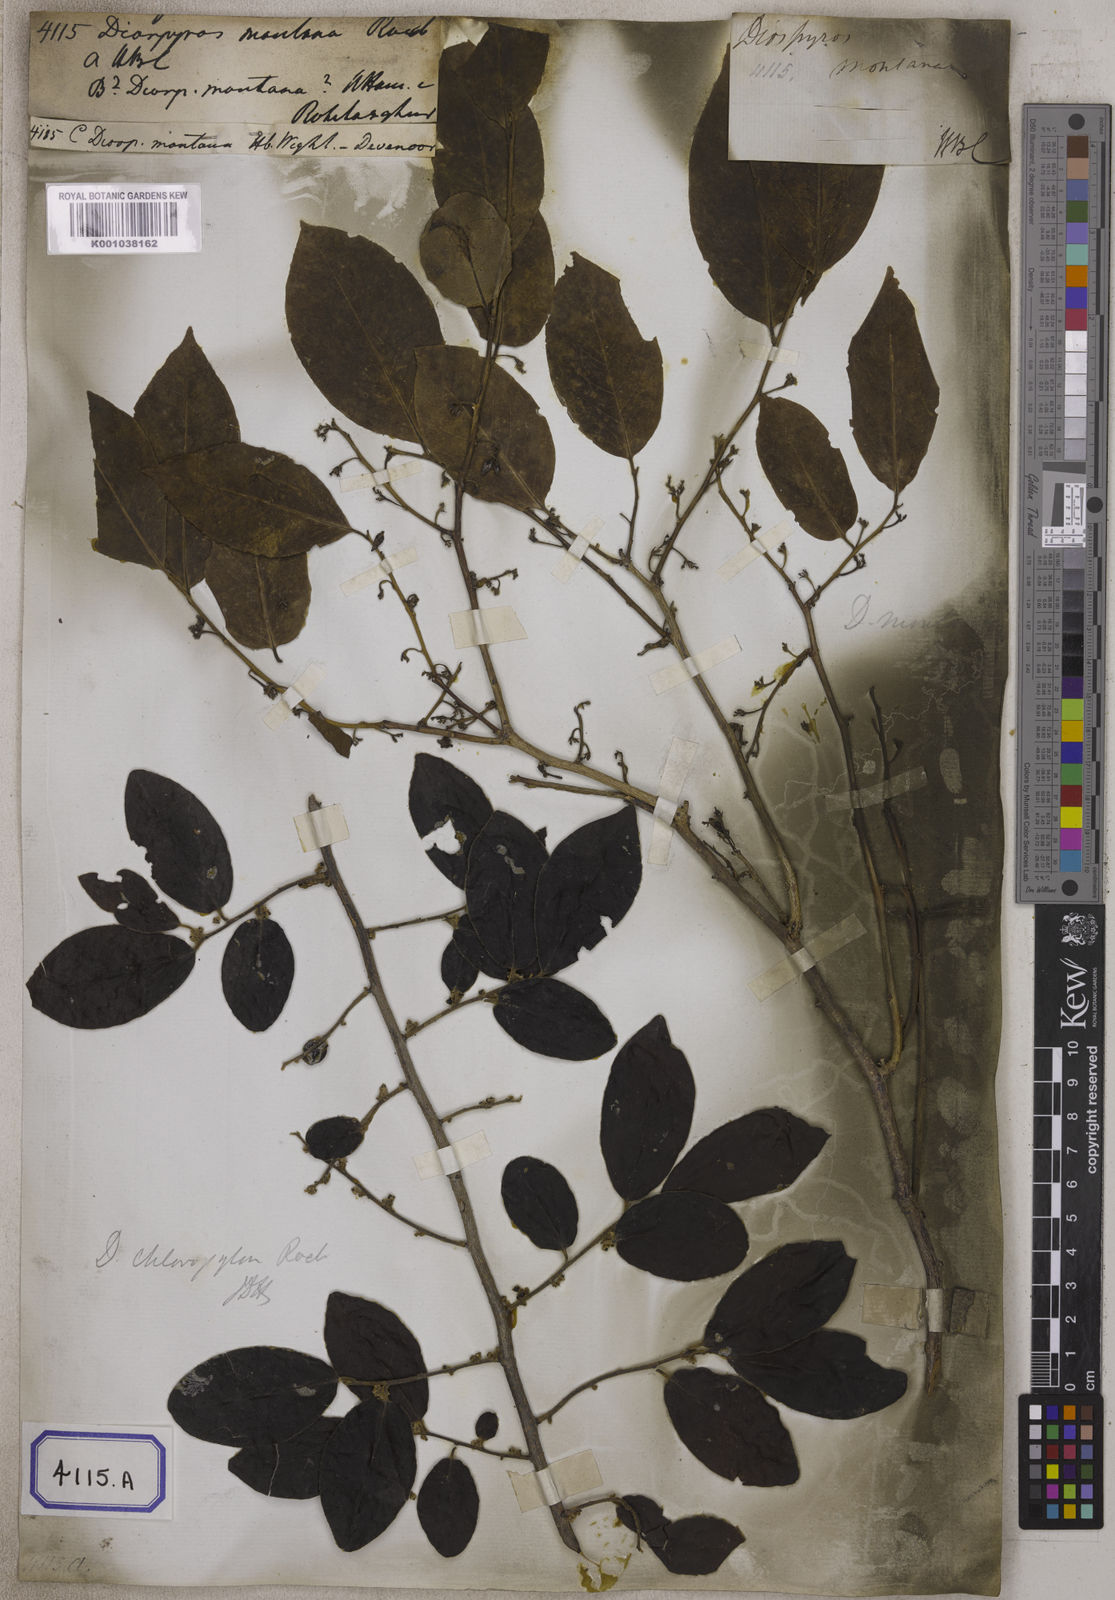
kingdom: Plantae
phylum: Tracheophyta
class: Magnoliopsida
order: Ericales
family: Ebenaceae
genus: Diospyros
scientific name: Diospyros
